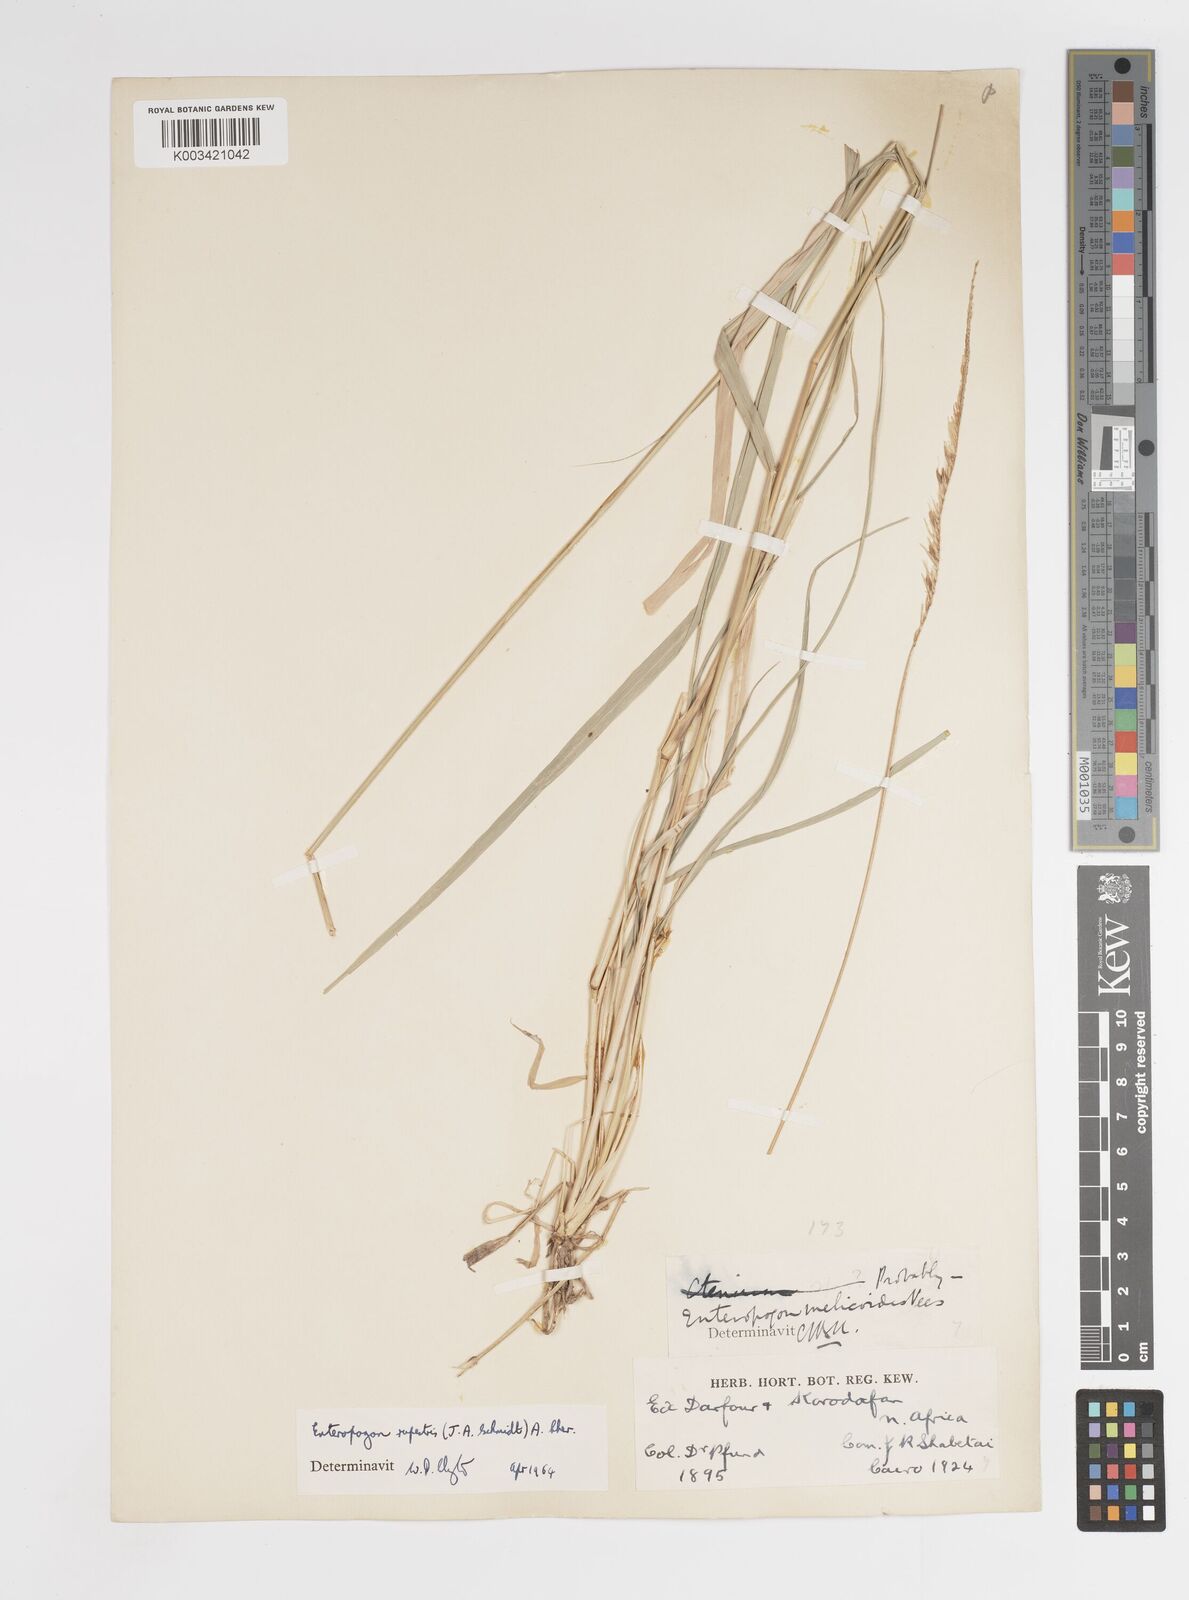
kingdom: Plantae
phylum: Tracheophyta
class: Liliopsida
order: Poales
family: Poaceae
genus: Enteropogon
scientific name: Enteropogon rupestris
